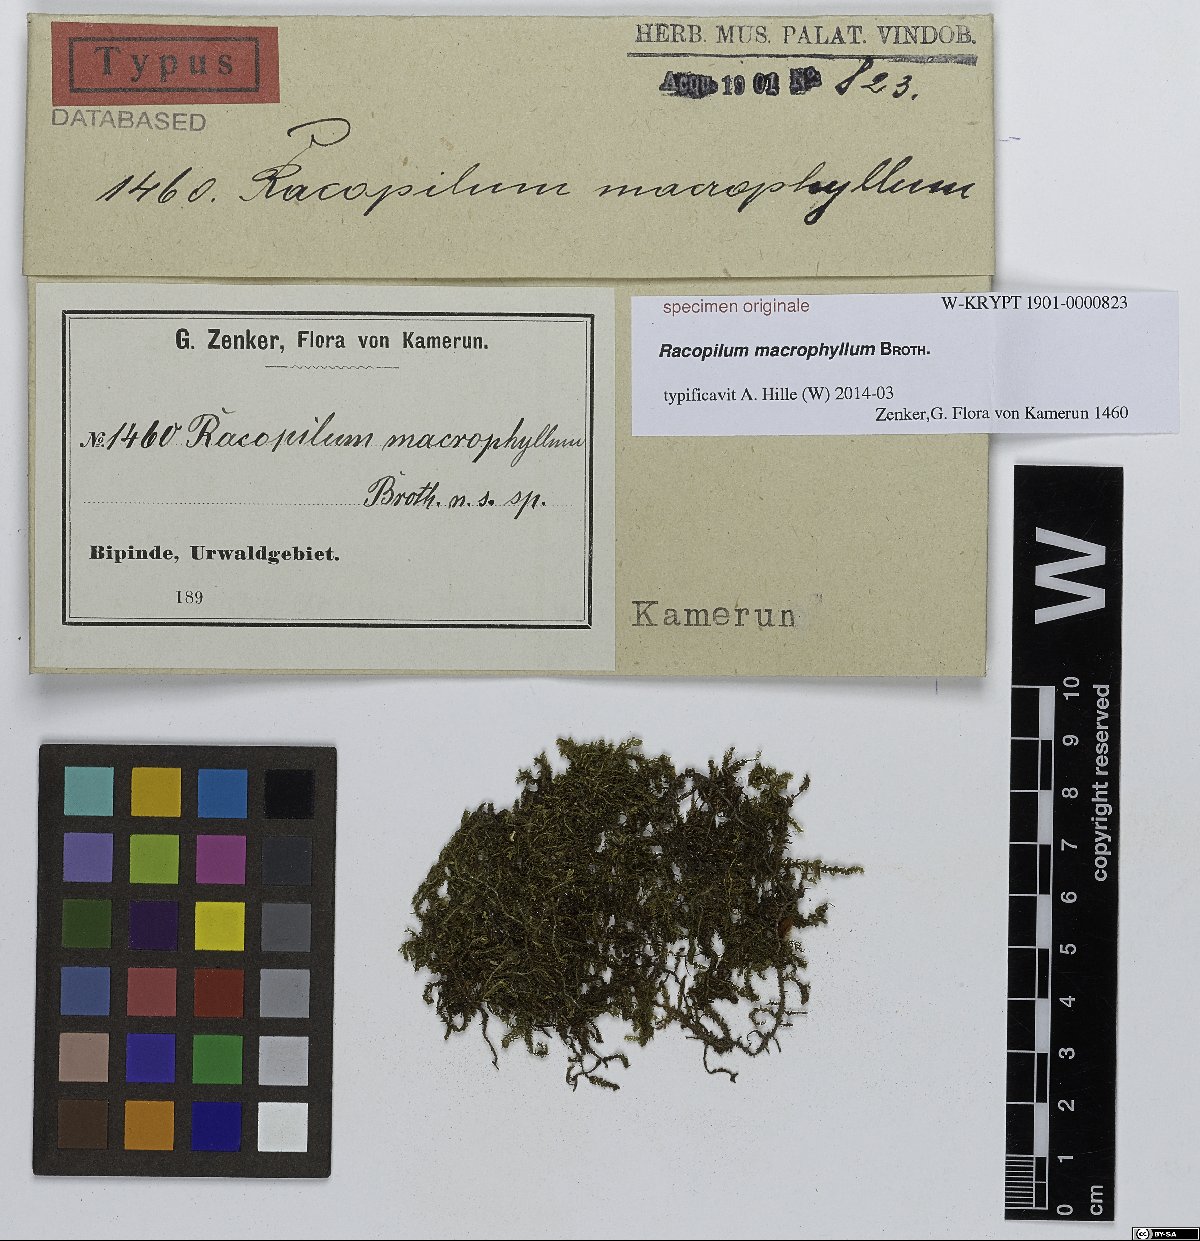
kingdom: Plantae
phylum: Bryophyta
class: Bryopsida
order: Hypnodendrales
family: Racopilaceae
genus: Racopilum
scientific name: Racopilum cuspidigerum
